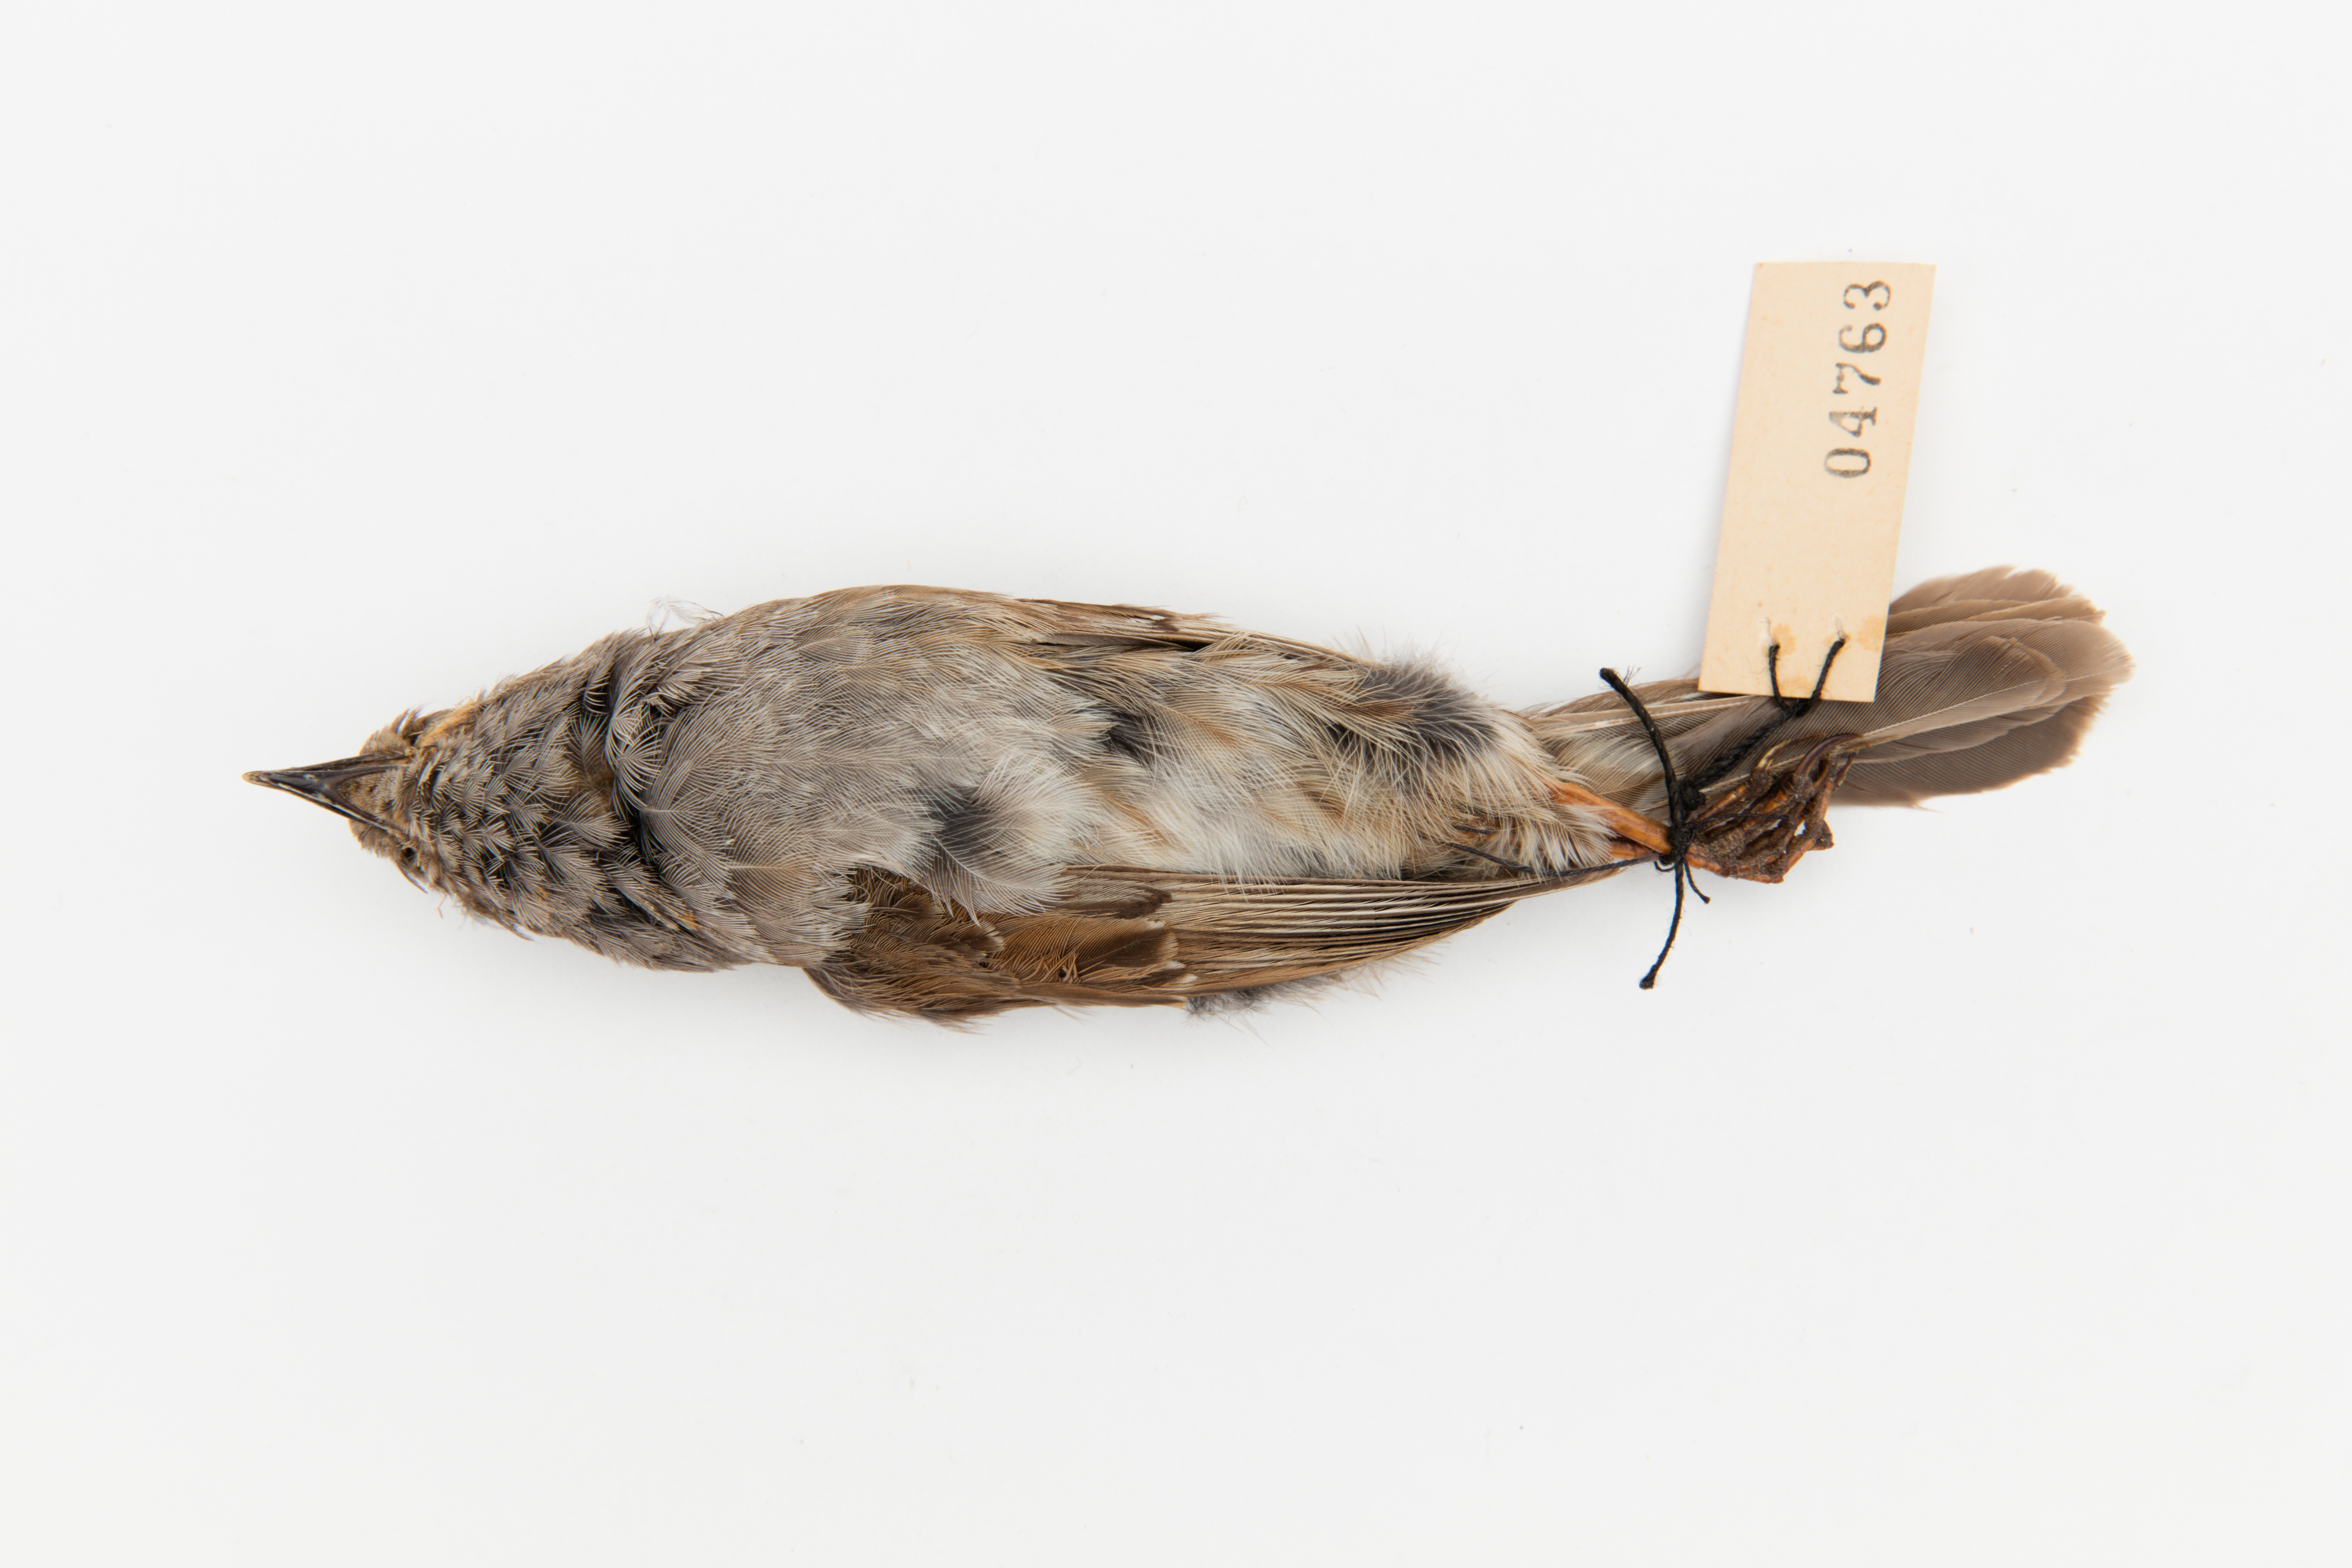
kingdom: Animalia
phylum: Chordata
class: Aves
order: Passeriformes
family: Prunellidae
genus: Prunella
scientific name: Prunella modularis
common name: Dunnock
